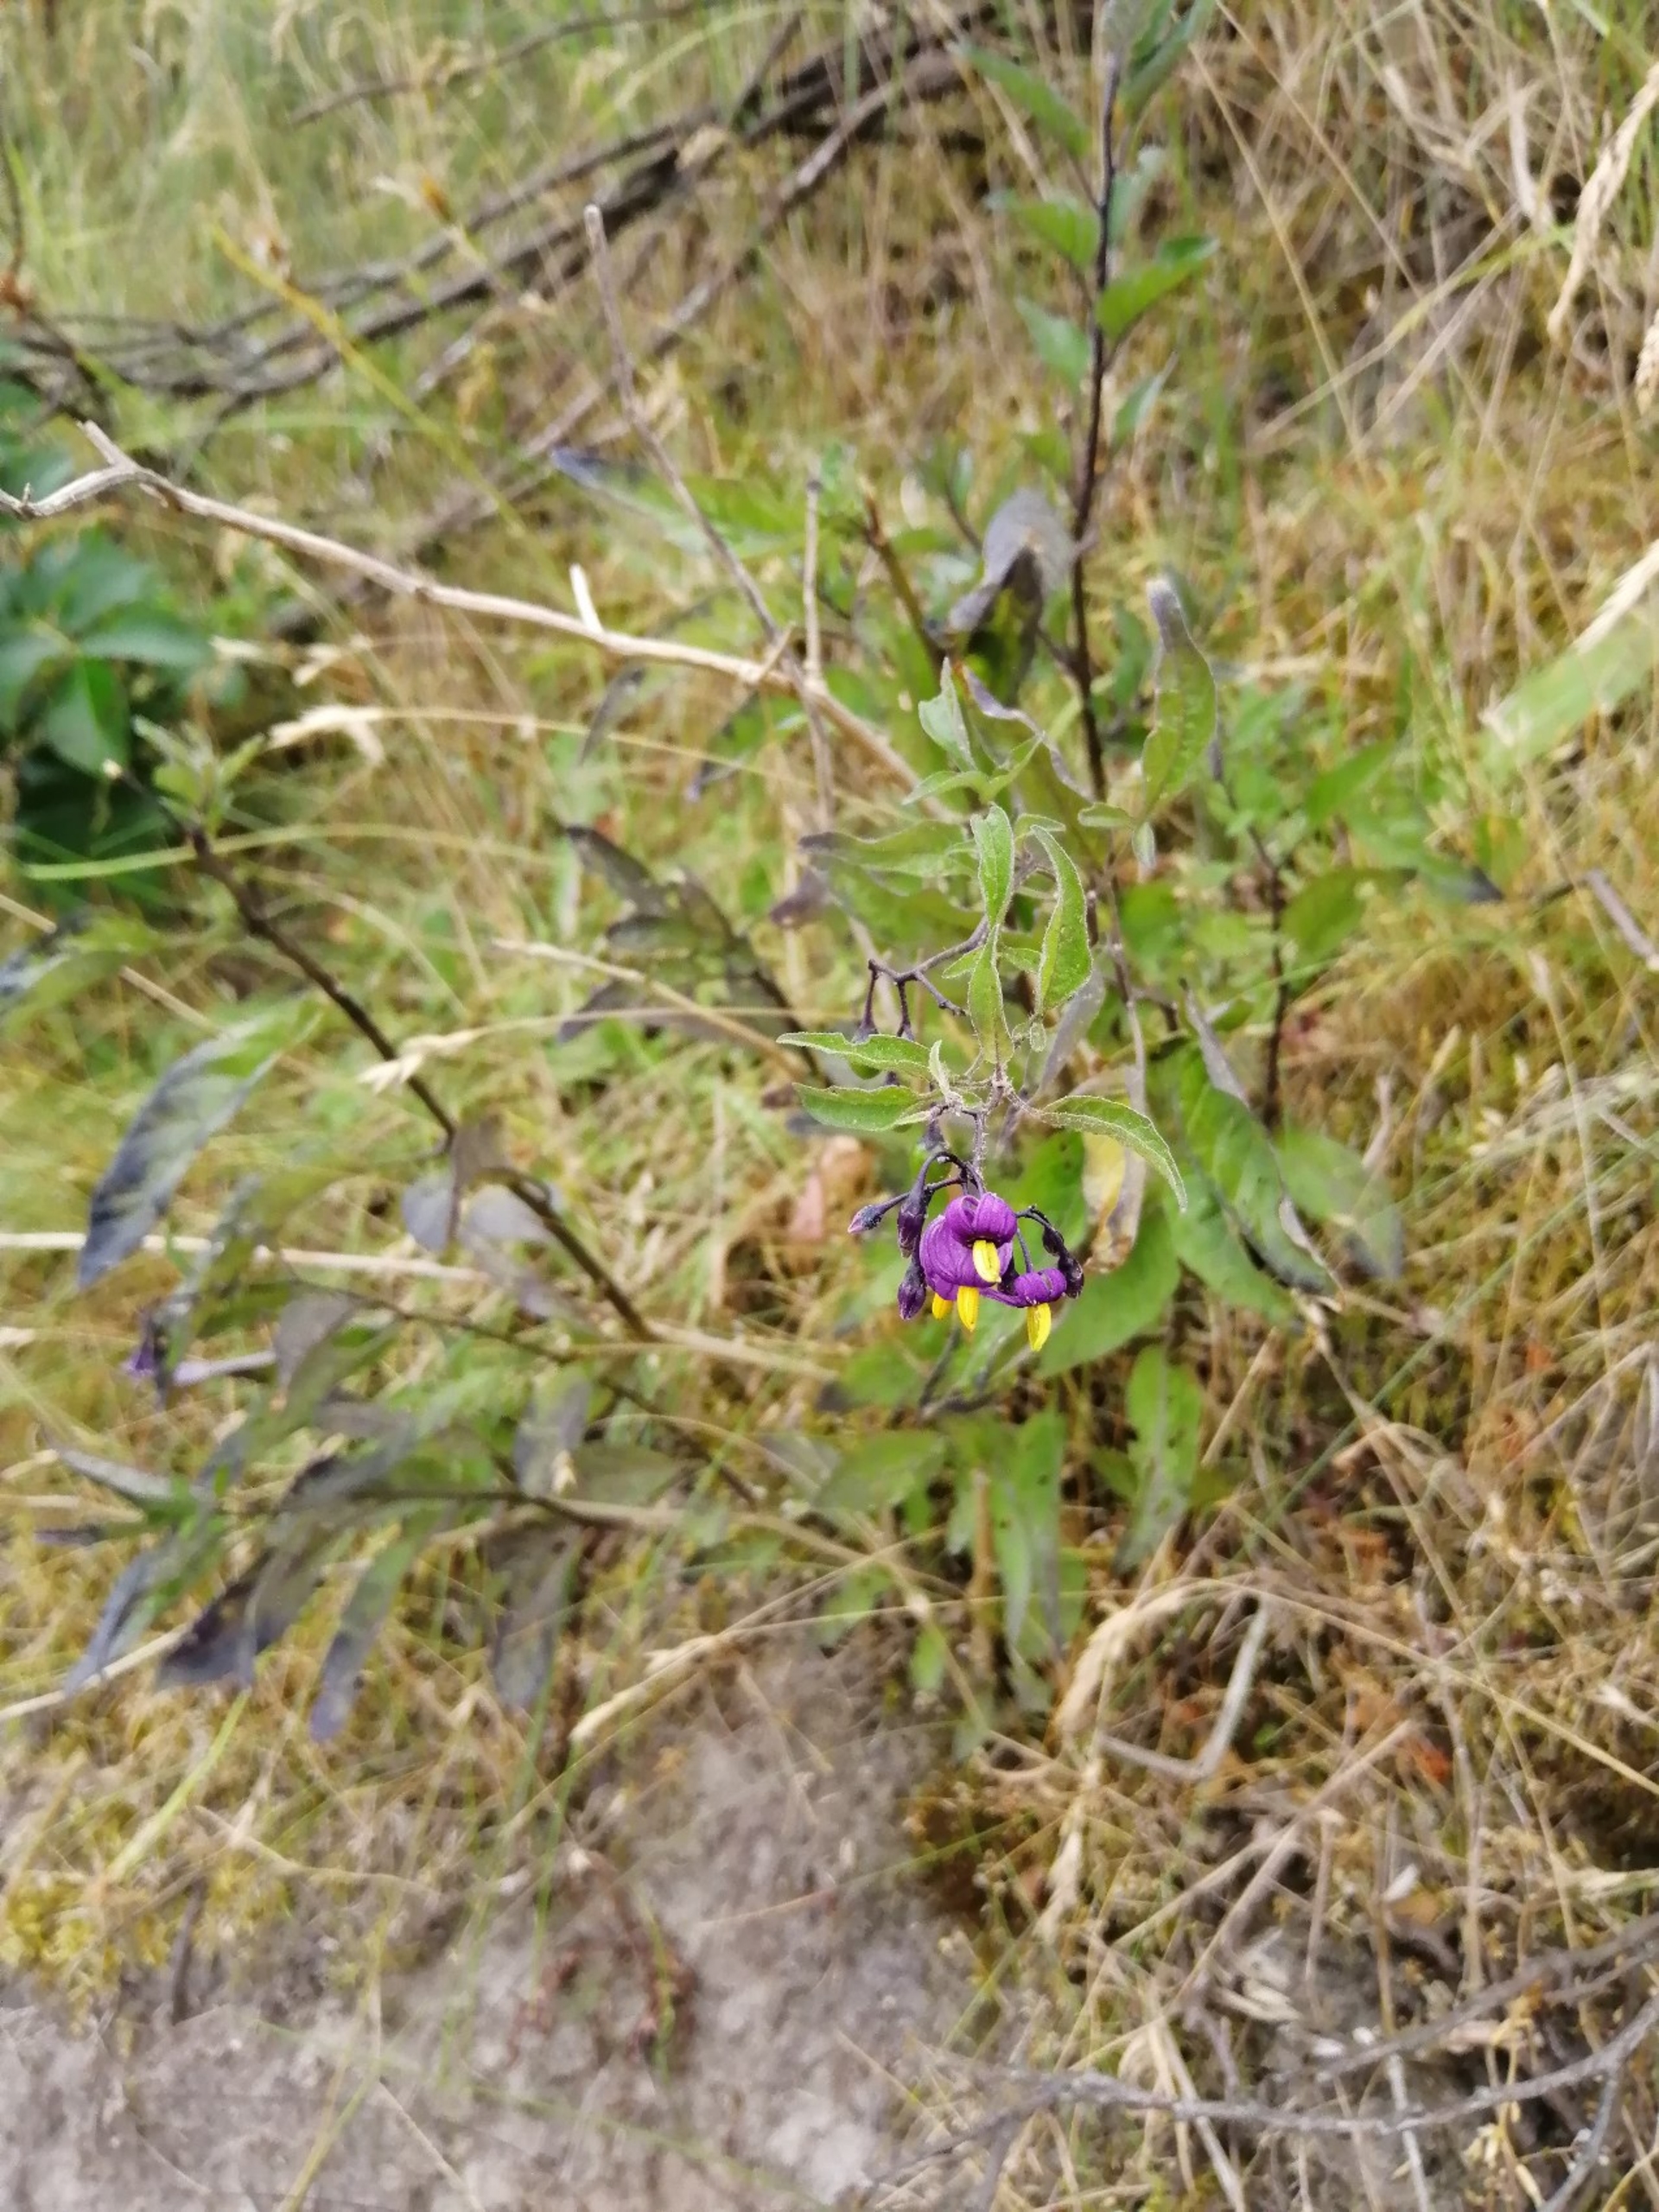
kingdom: Plantae
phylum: Tracheophyta
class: Magnoliopsida
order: Solanales
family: Solanaceae
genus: Solanum
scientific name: Solanum dulcamara
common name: Bittersød natskygge (varietet)
